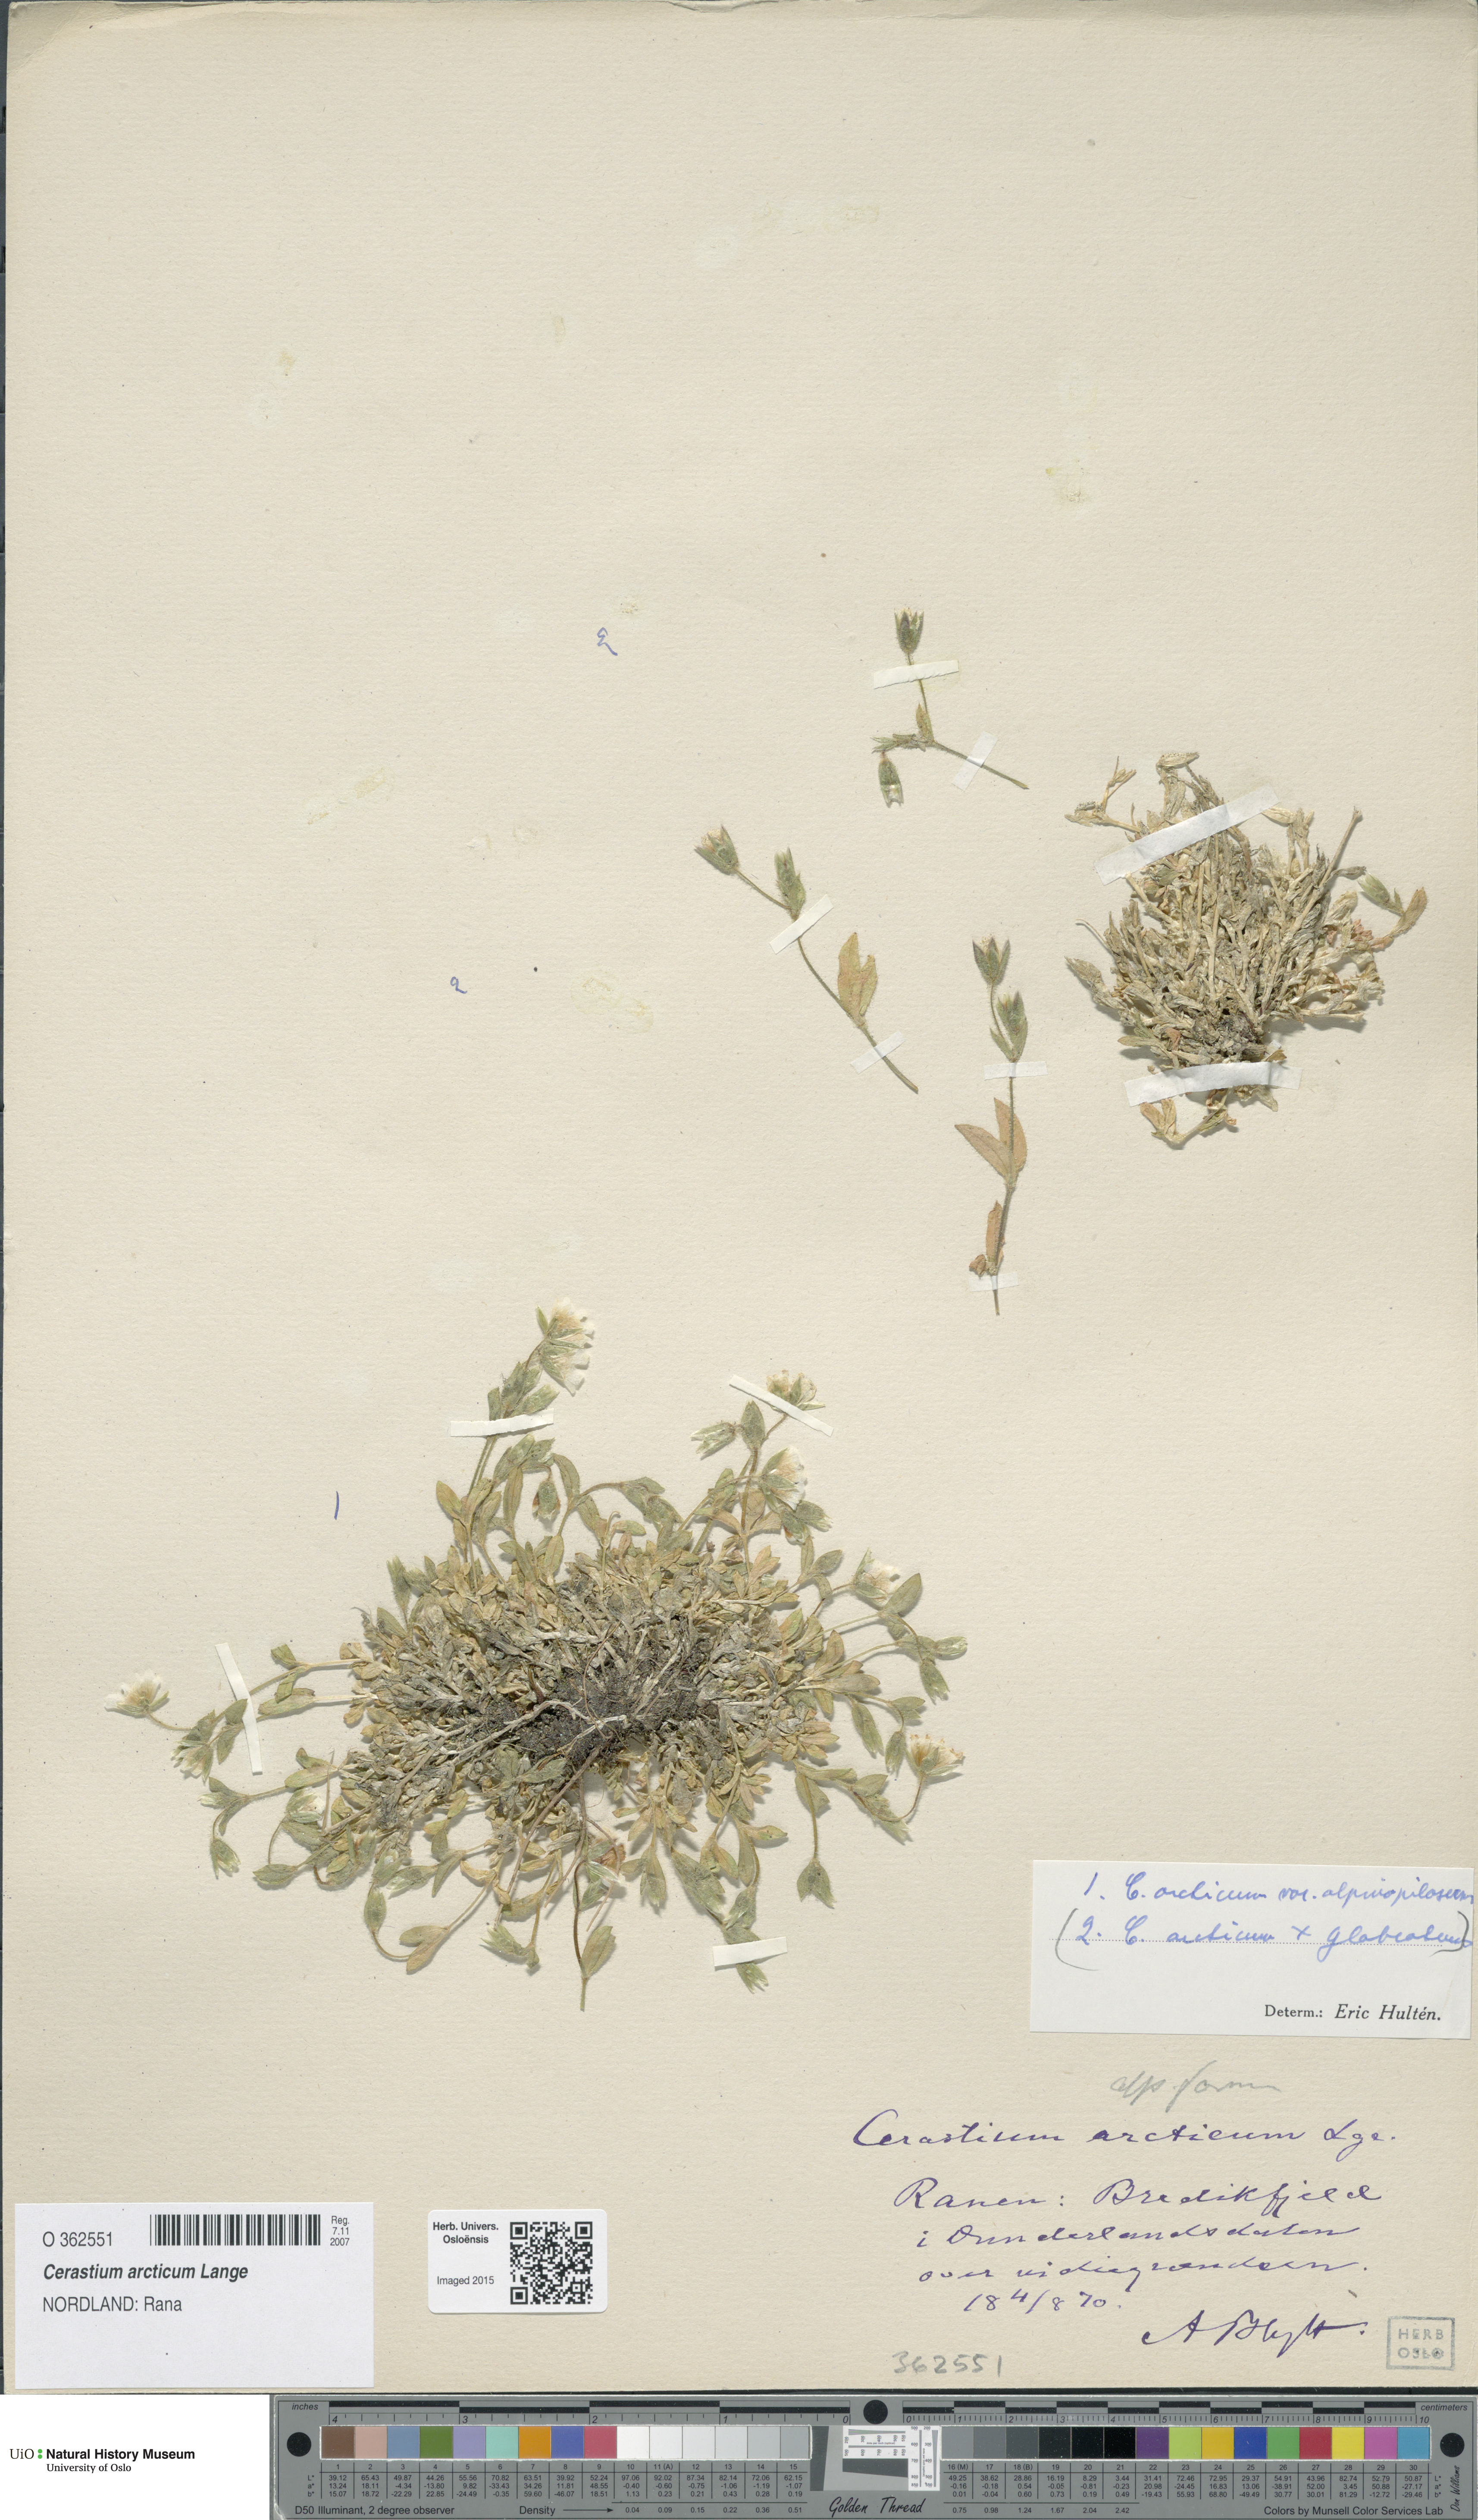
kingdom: Plantae
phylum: Tracheophyta
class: Magnoliopsida
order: Caryophyllales
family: Caryophyllaceae
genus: Cerastium
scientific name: Cerastium arcticum
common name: Arctic mouse-ear
